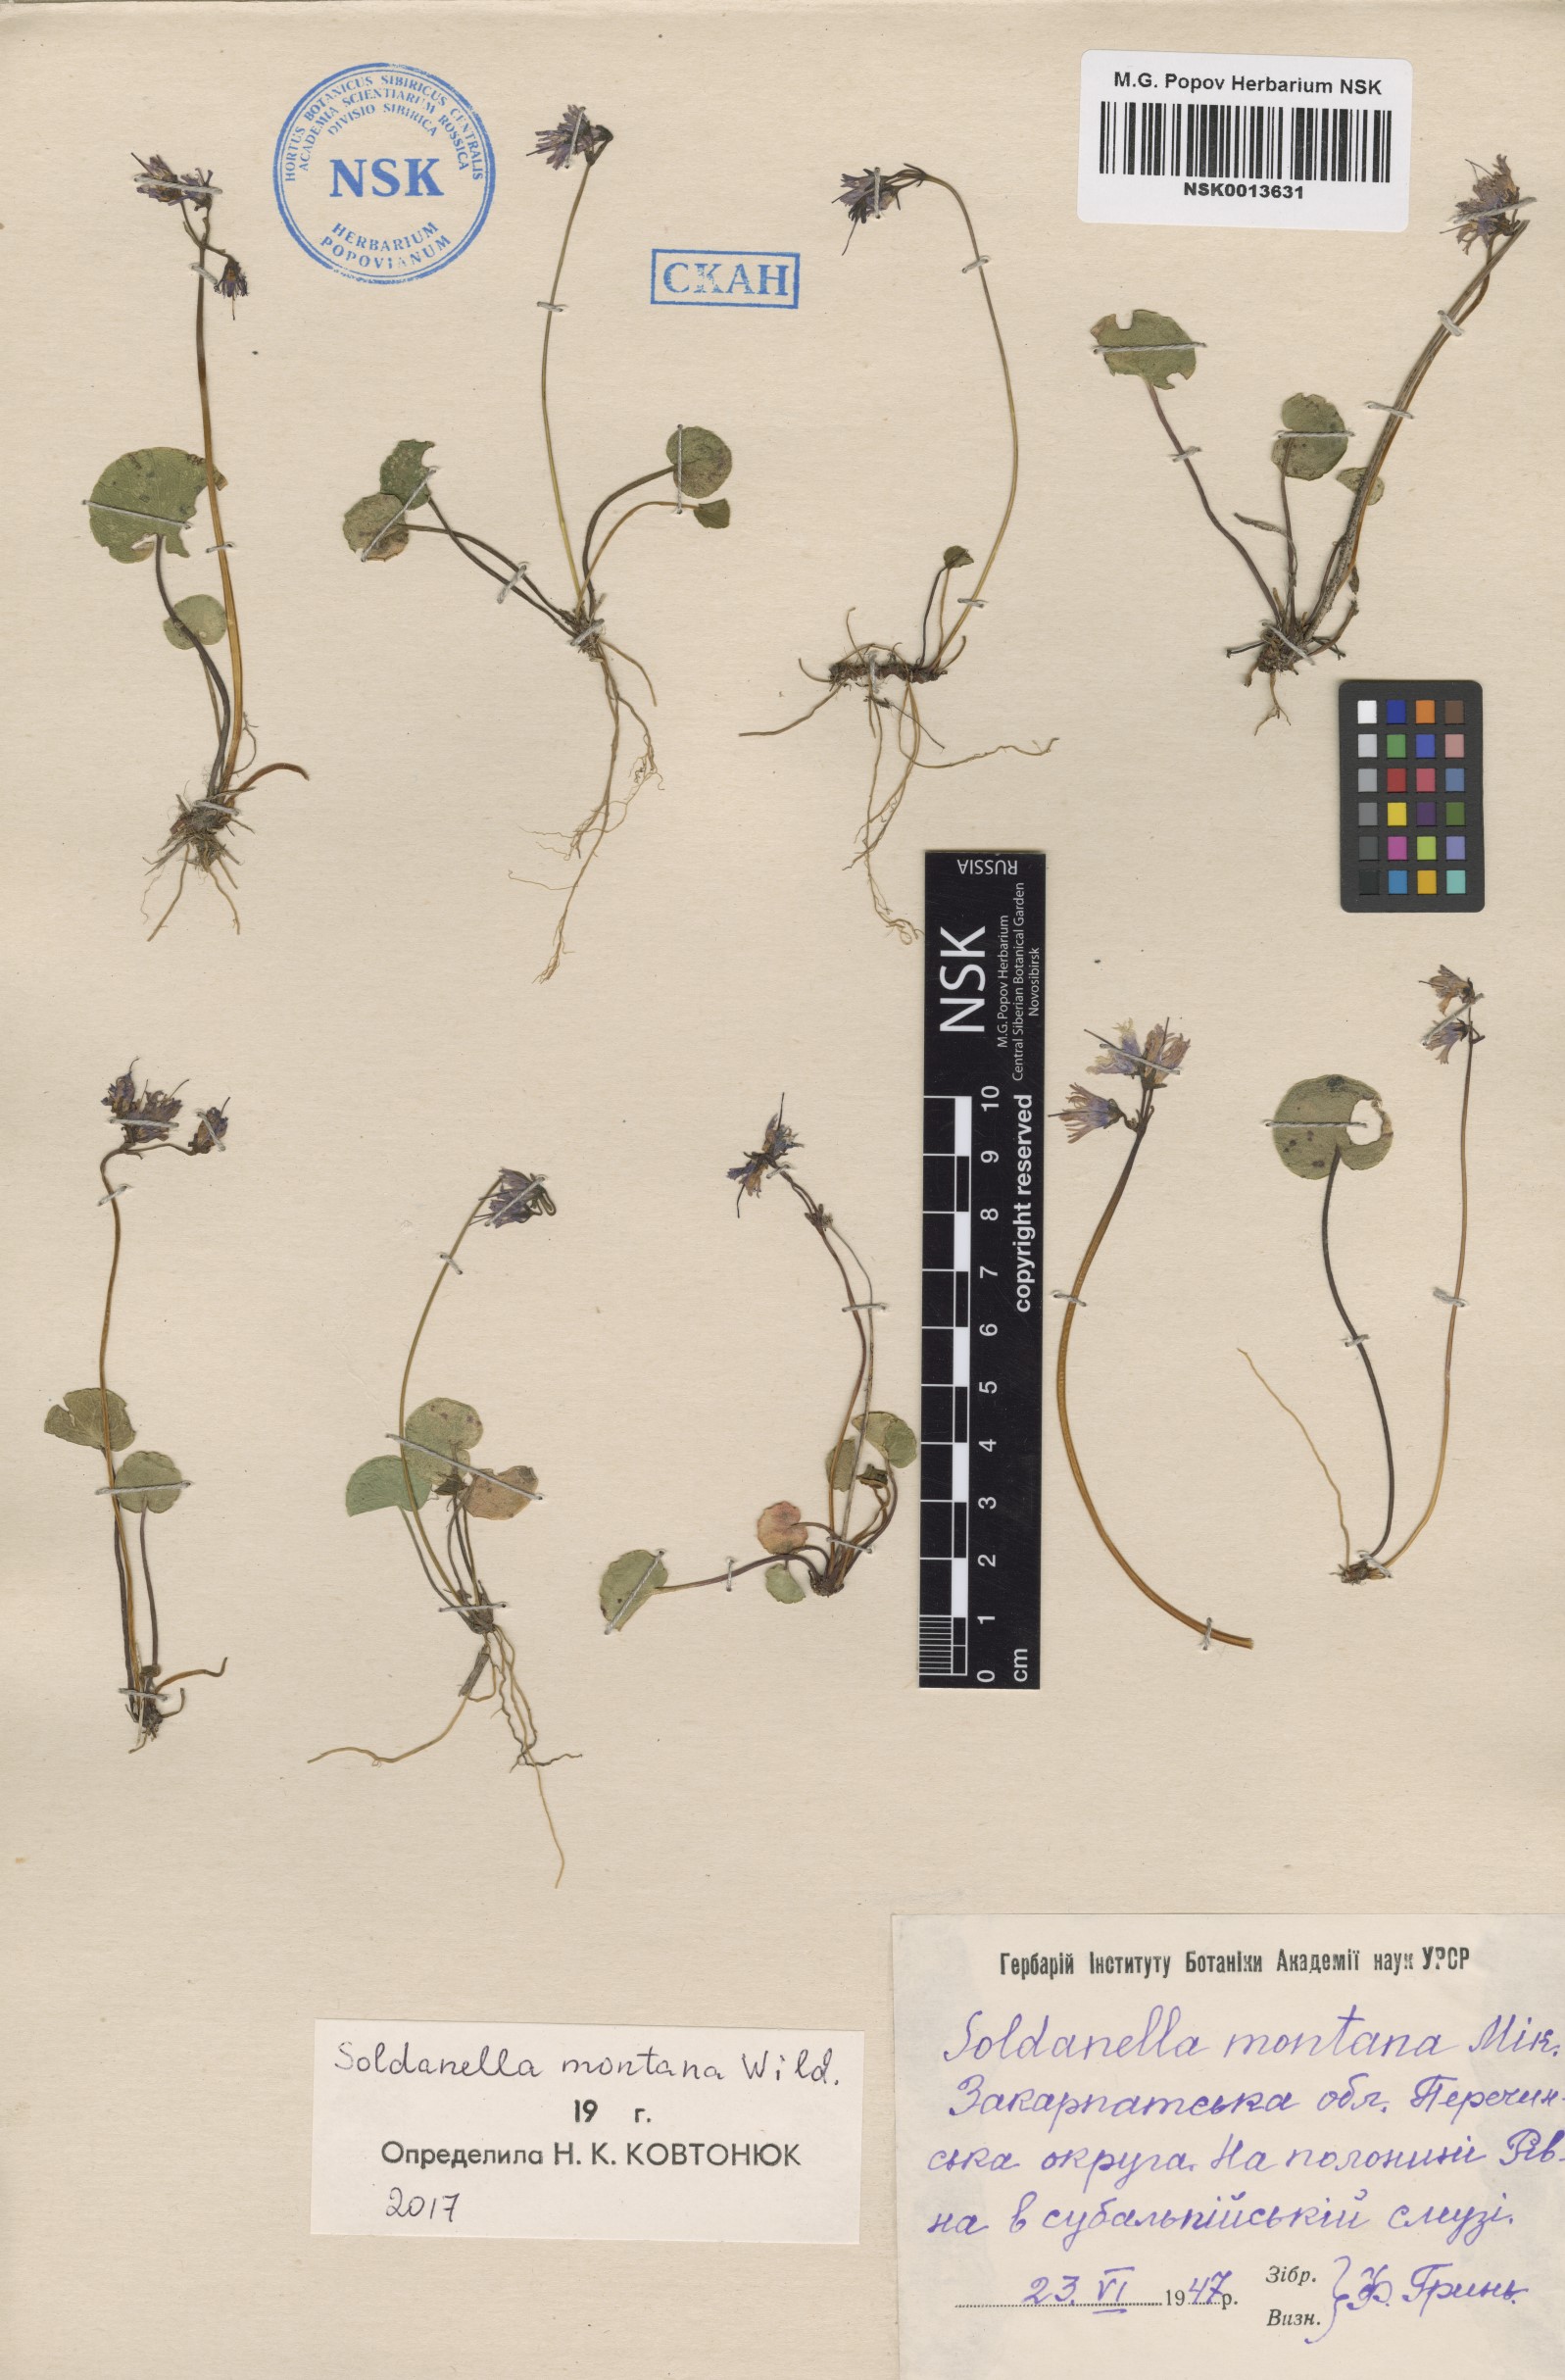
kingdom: Plantae
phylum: Tracheophyta
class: Magnoliopsida
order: Ericales
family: Primulaceae
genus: Soldanella
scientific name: Soldanella montana
